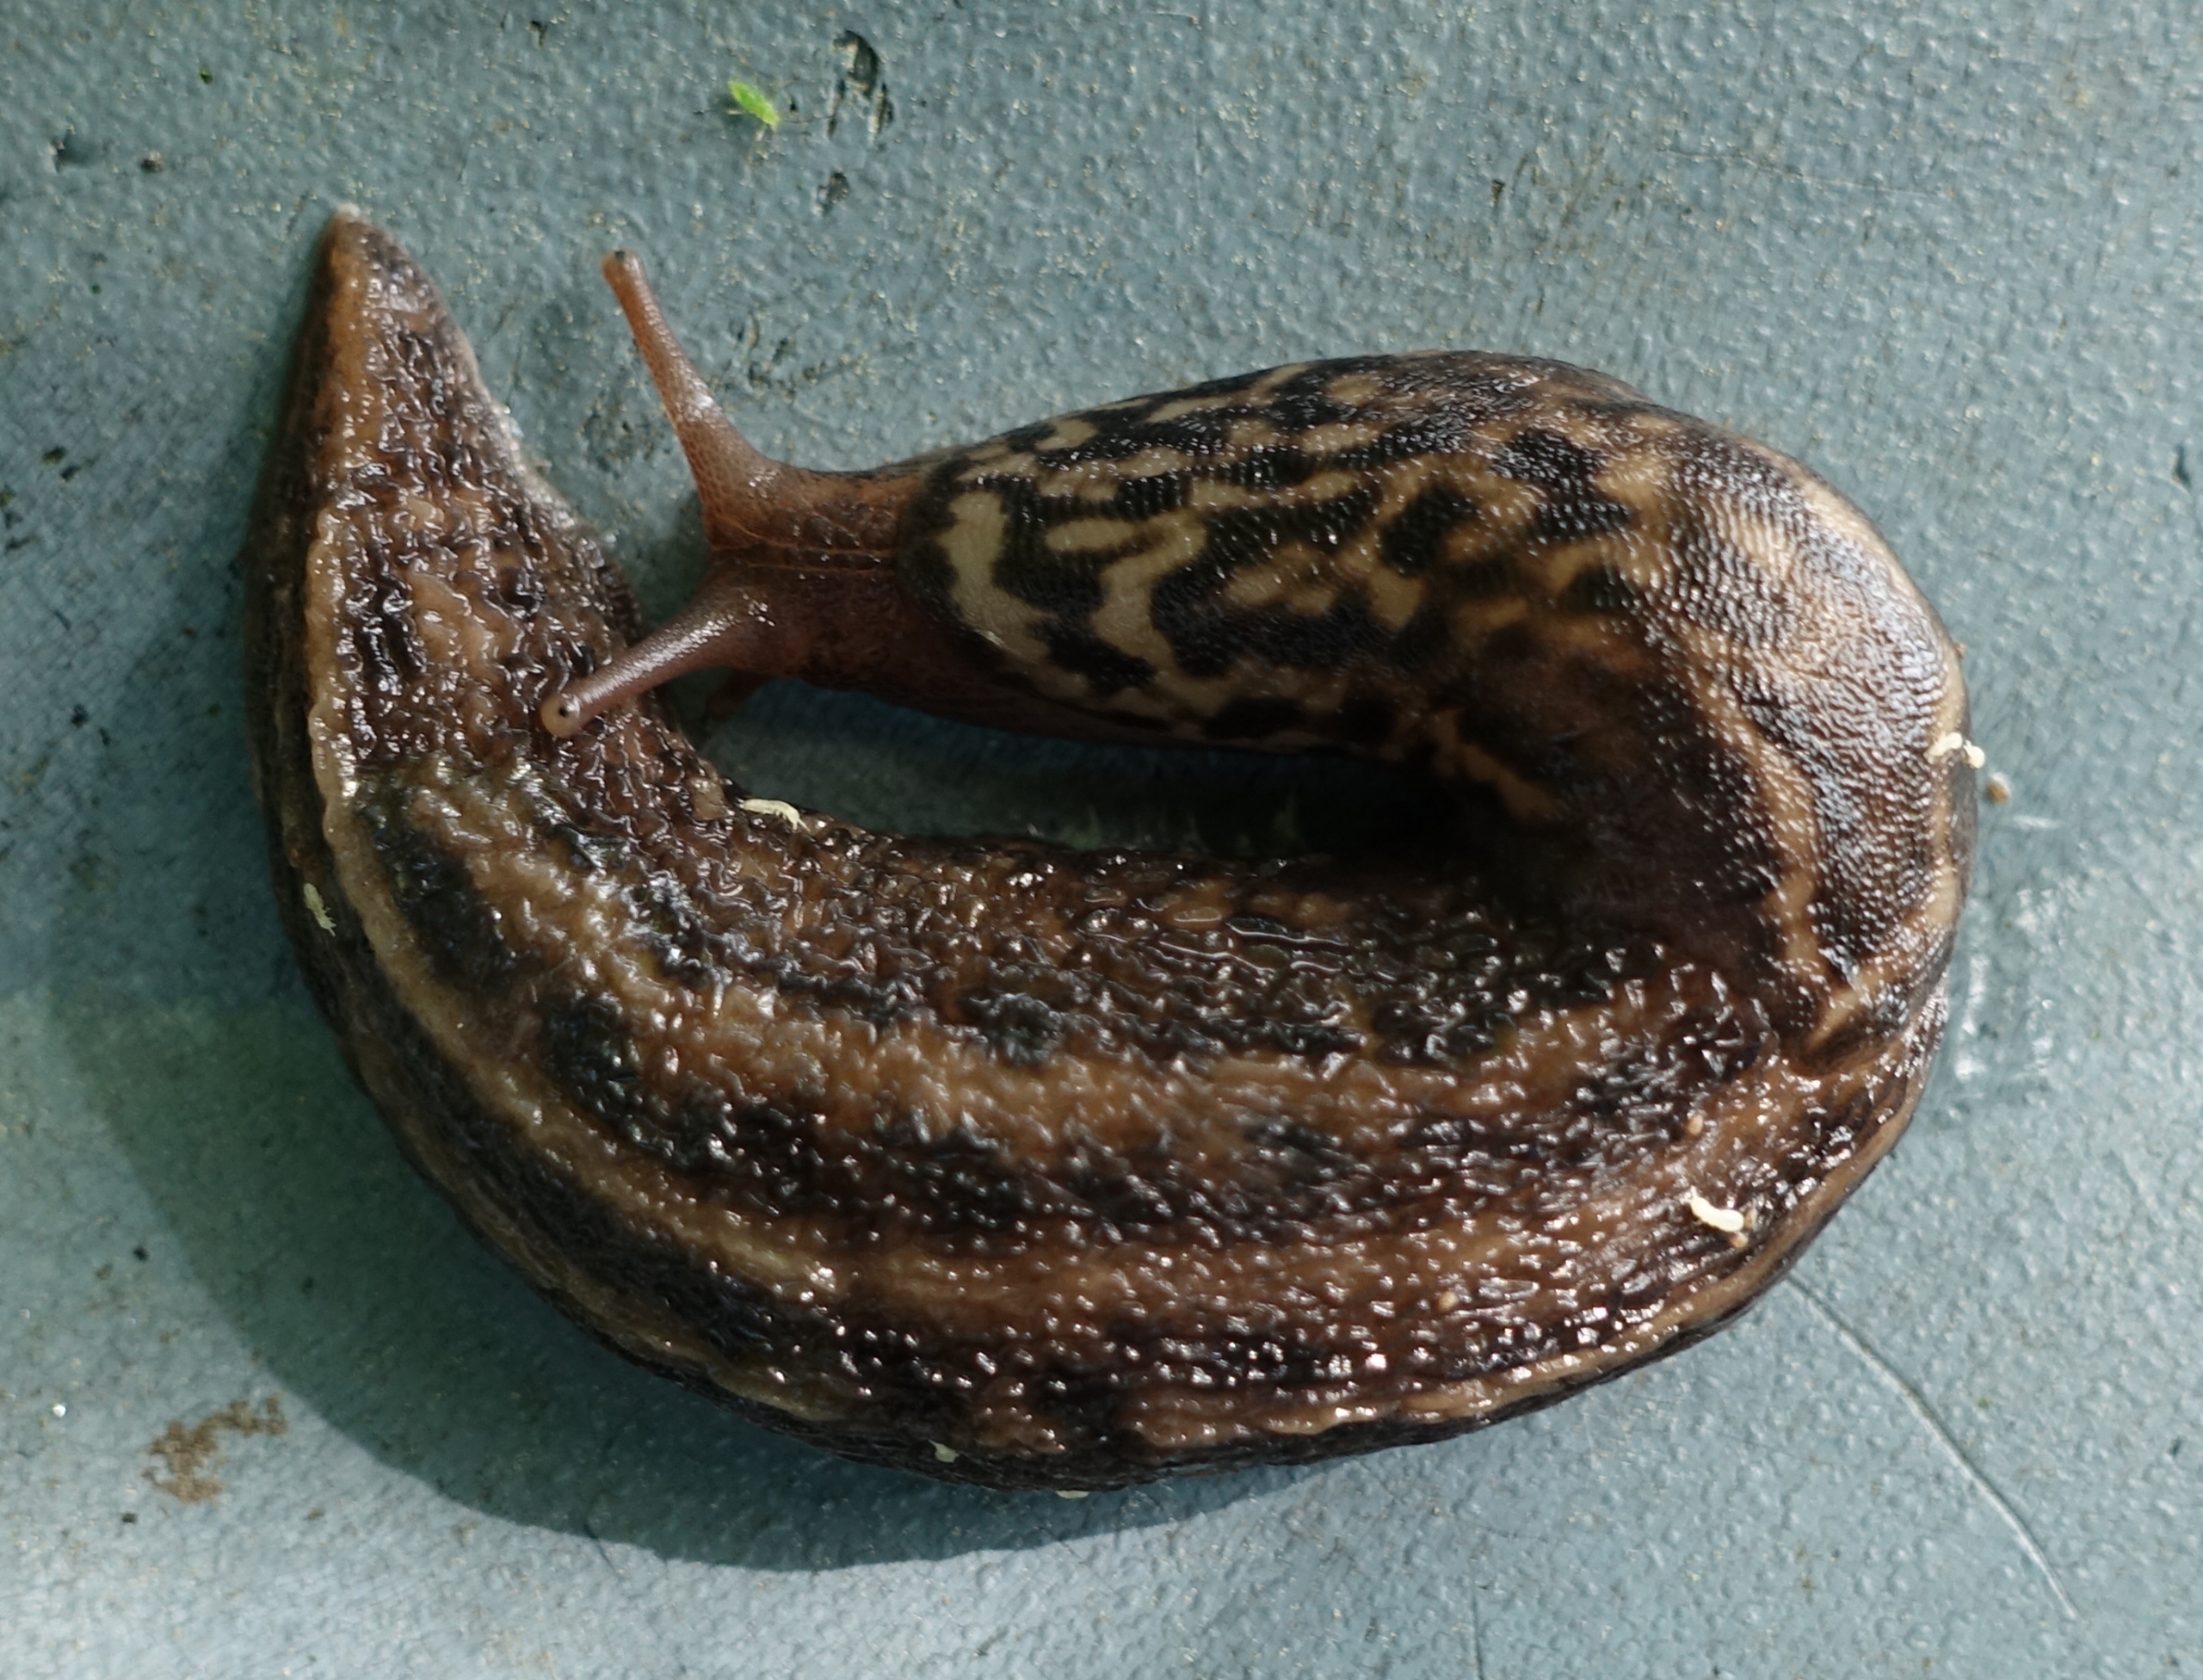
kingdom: Animalia
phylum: Mollusca
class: Gastropoda
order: Stylommatophora
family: Limacidae
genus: Limax
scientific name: Limax maximus
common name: Pantersnegl
